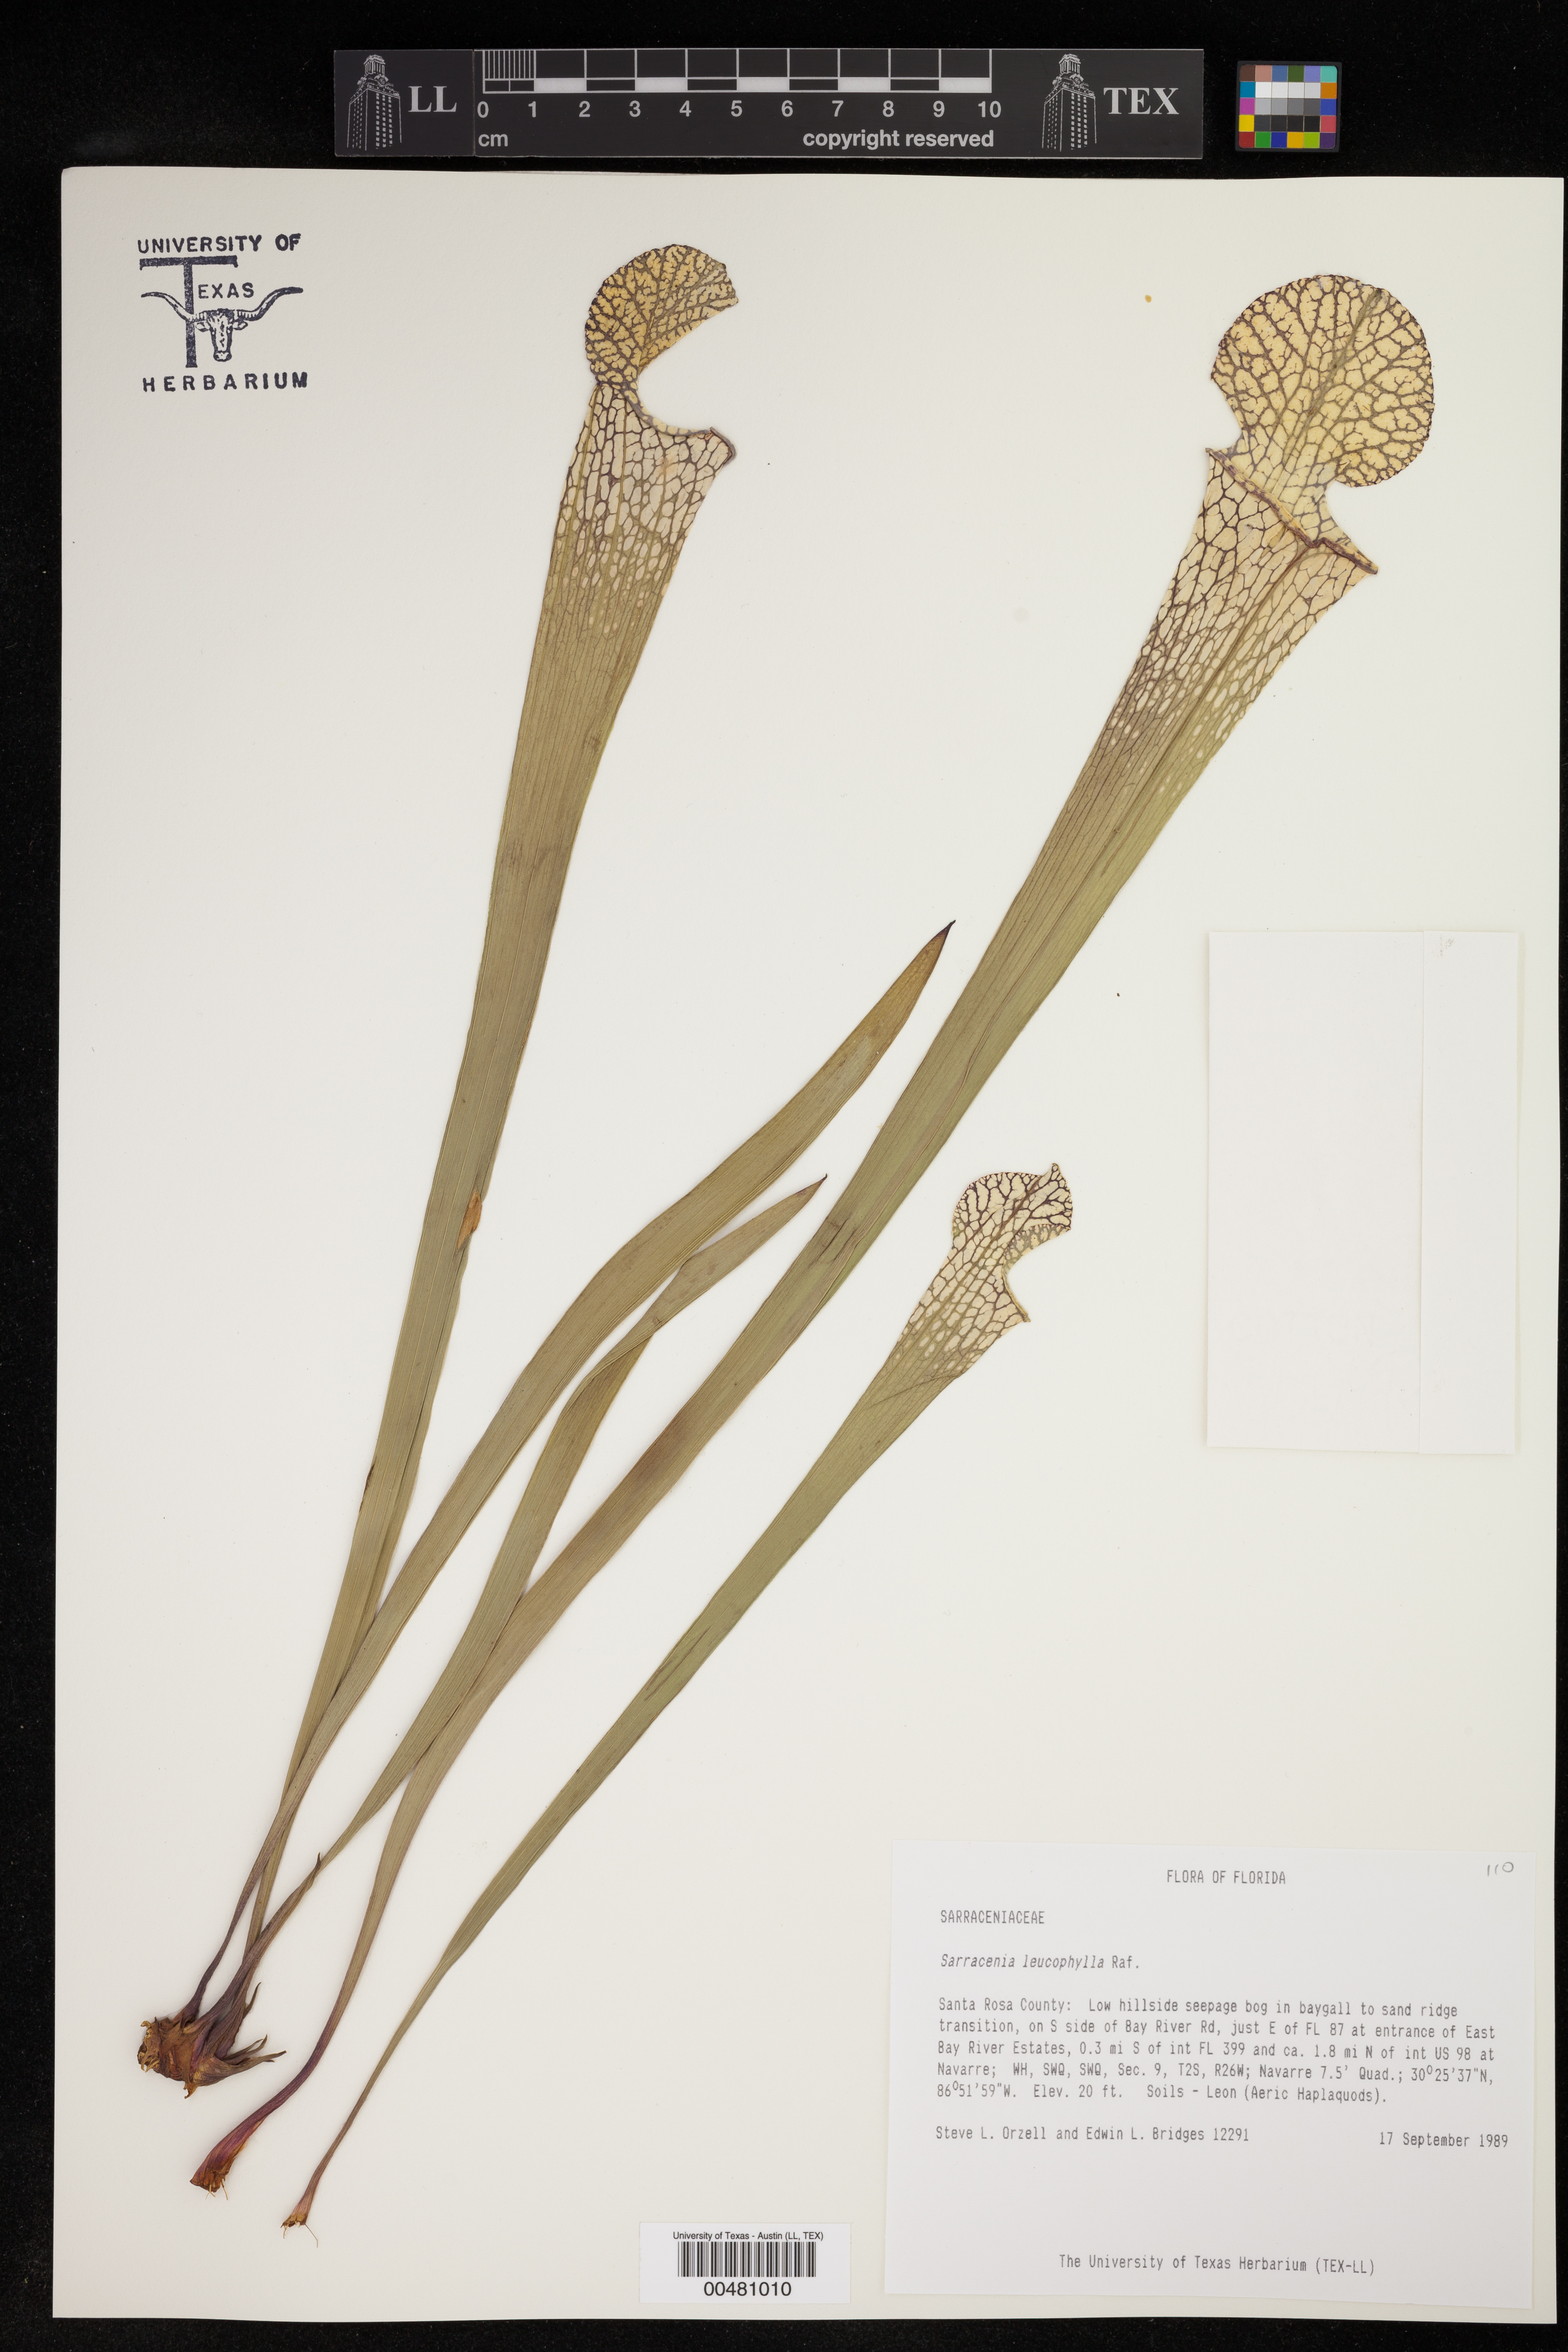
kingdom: Plantae
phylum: Tracheophyta
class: Magnoliopsida
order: Ericales
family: Sarraceniaceae
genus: Sarracenia
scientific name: Sarracenia leucophylla
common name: Purple trumpetleaf
